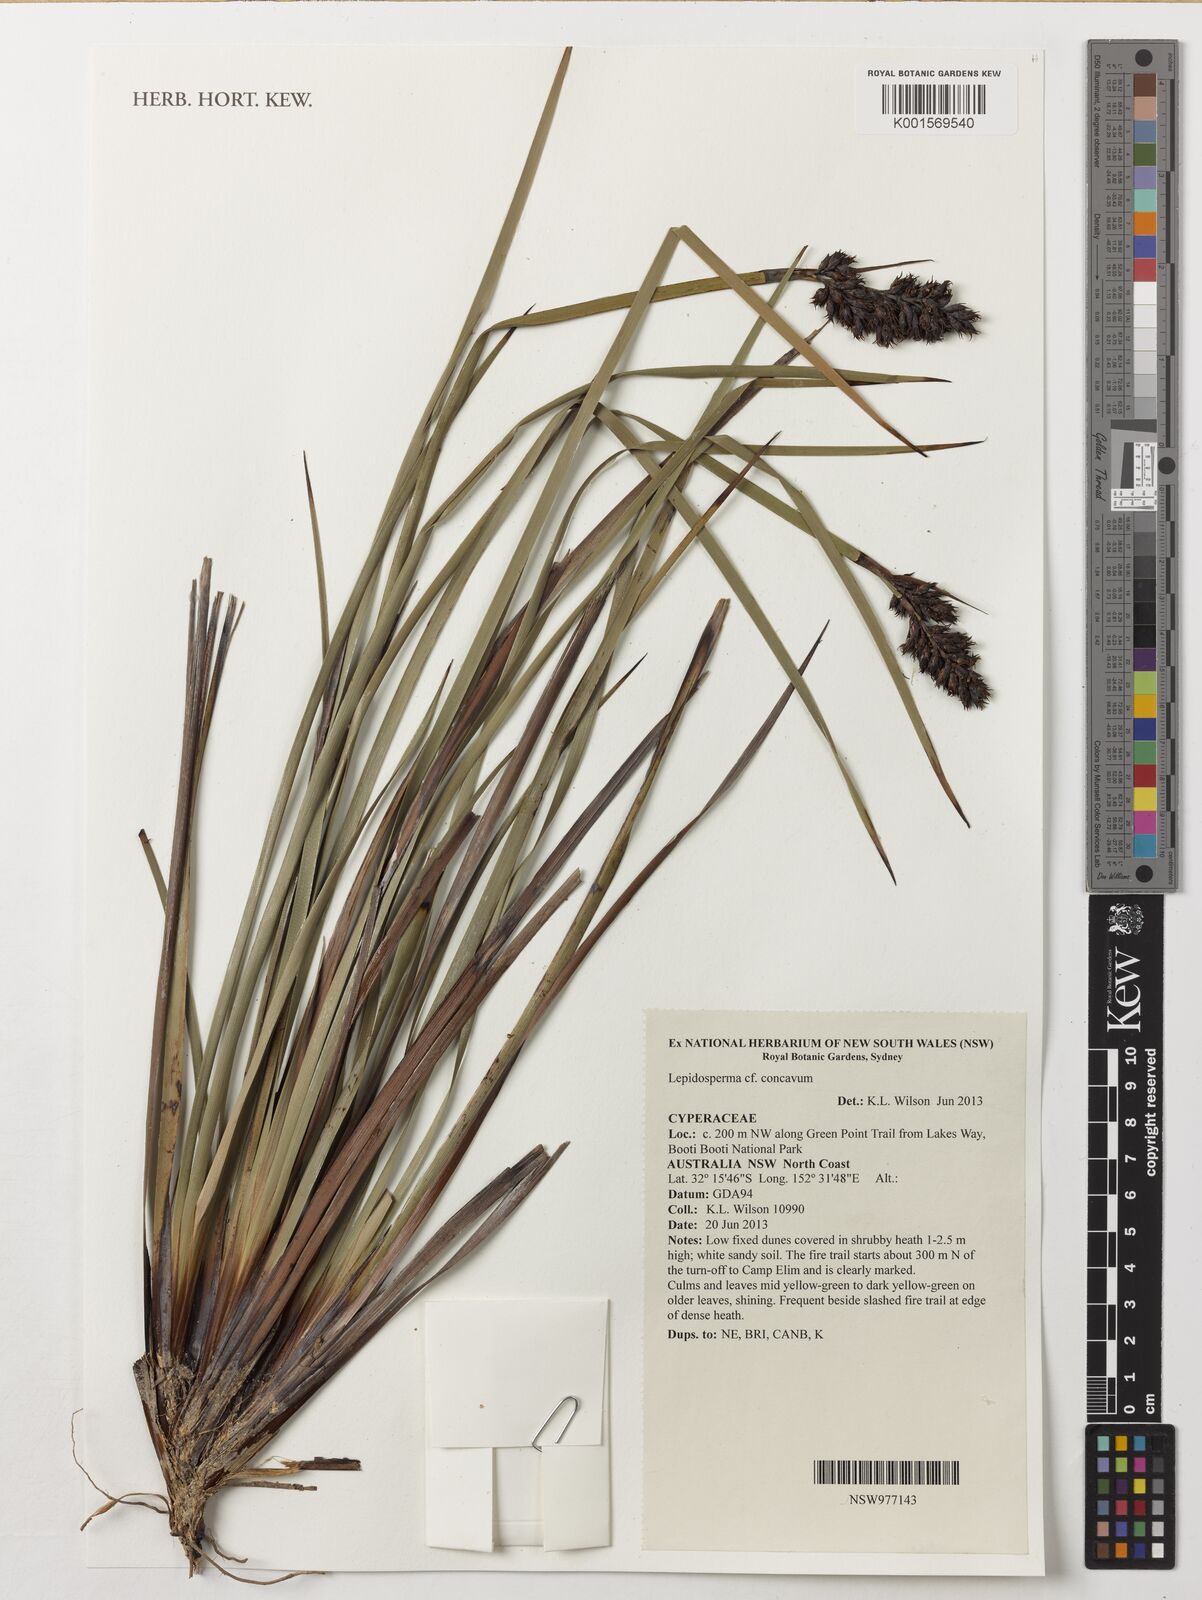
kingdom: Plantae
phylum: Tracheophyta
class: Liliopsida
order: Poales
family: Cyperaceae
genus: Lepidosperma
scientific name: Lepidosperma concavum
